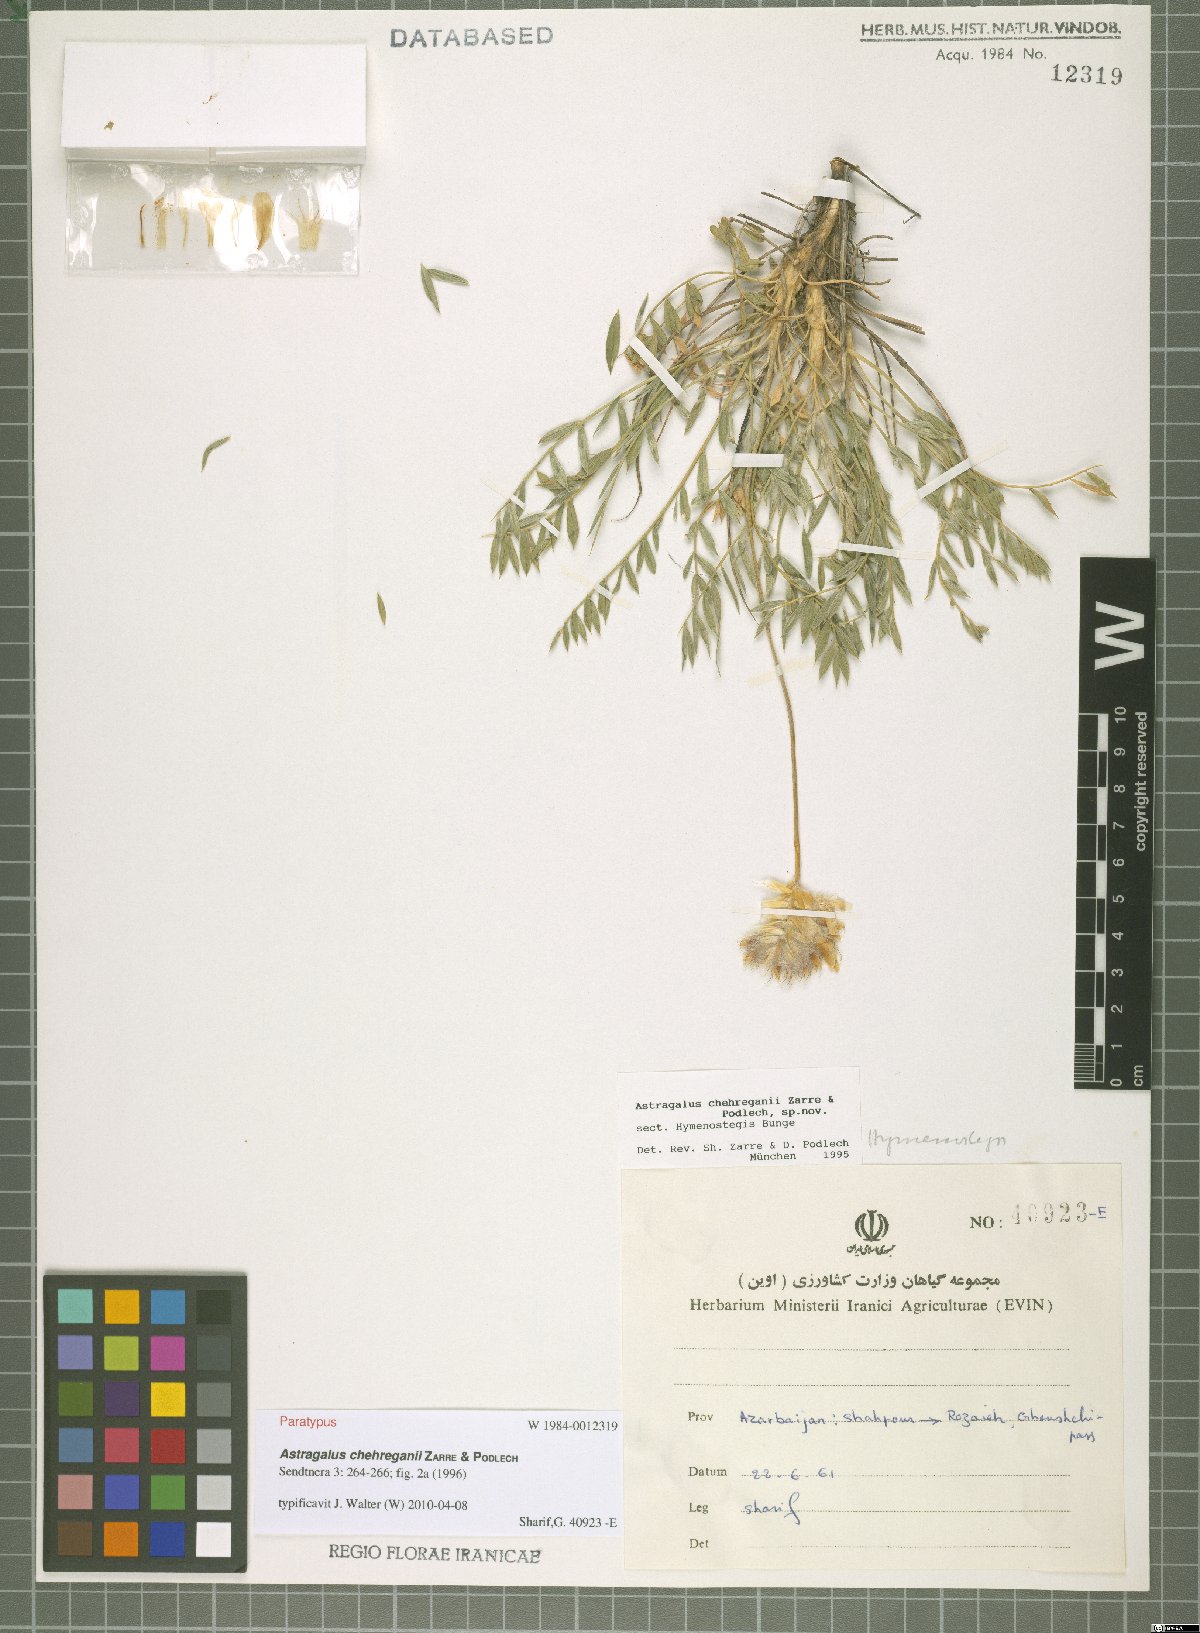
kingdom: Plantae
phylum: Tracheophyta
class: Magnoliopsida
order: Fabales
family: Fabaceae
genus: Astragalus
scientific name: Astragalus chehreganii
